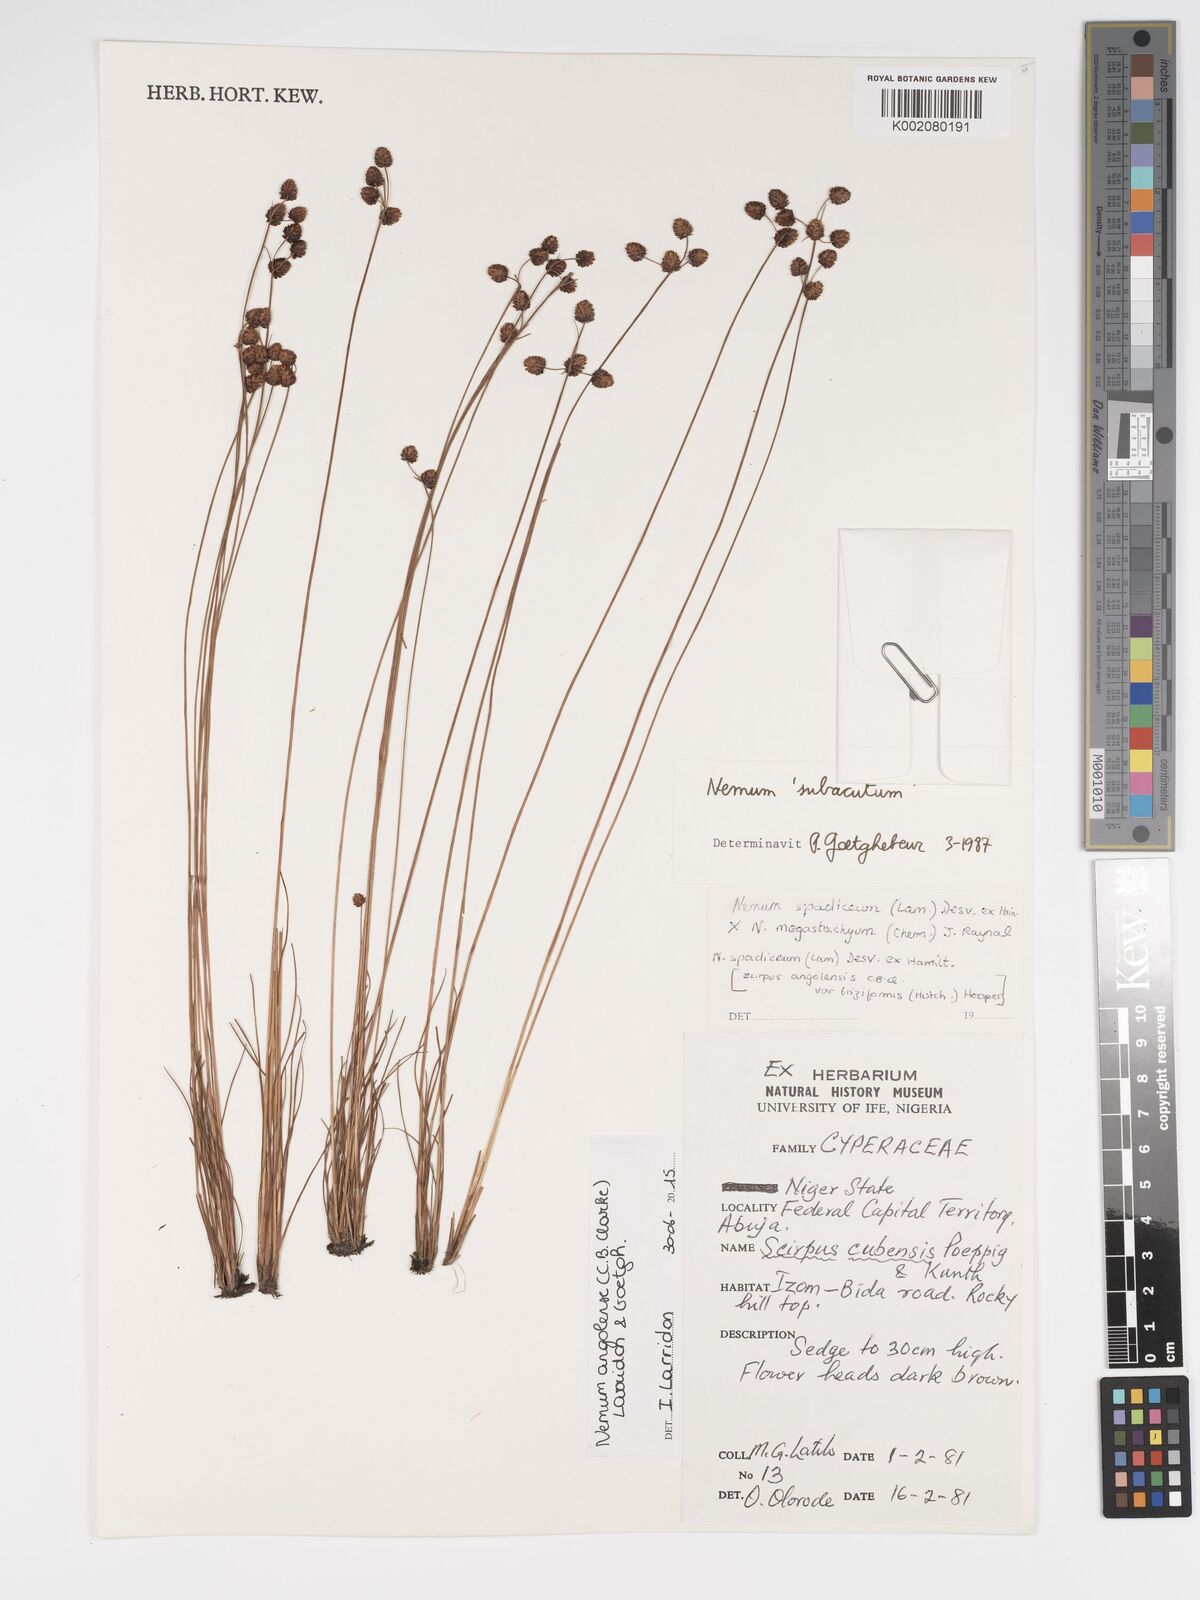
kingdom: Plantae
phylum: Tracheophyta
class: Liliopsida
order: Poales
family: Cyperaceae
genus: Bulbostylis
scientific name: Bulbostylis angolensis
